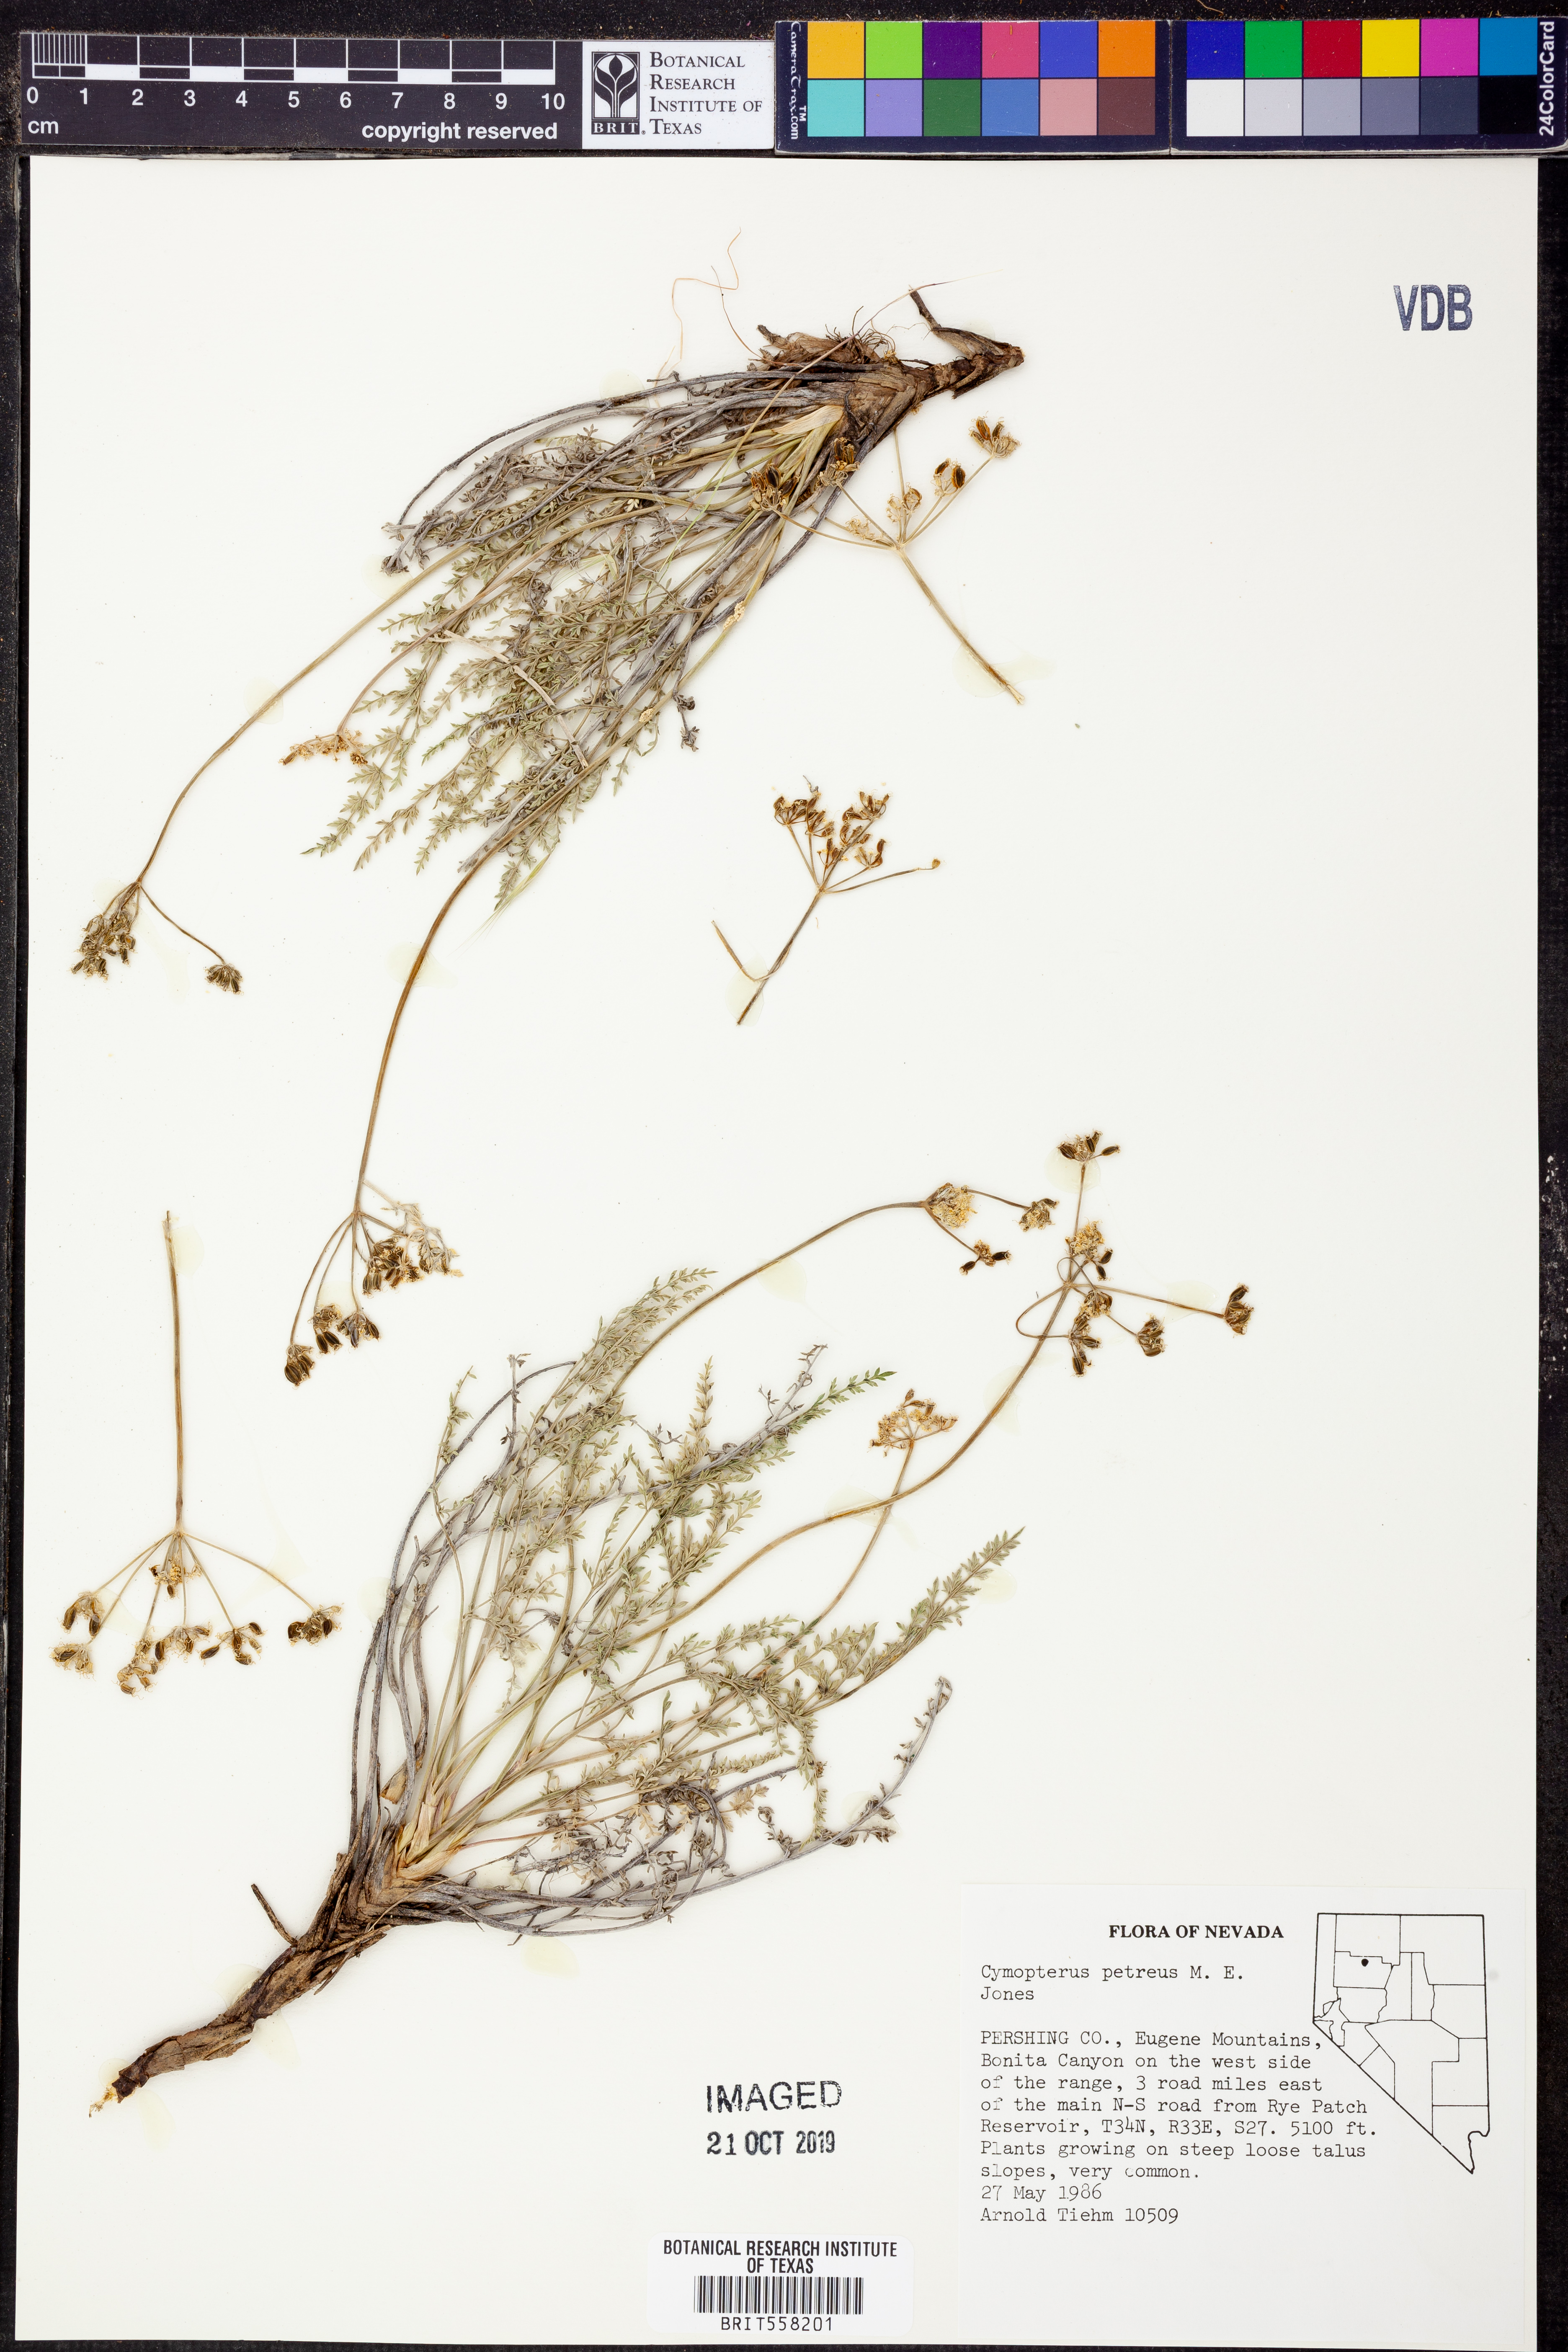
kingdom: Plantae
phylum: Tracheophyta
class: Magnoliopsida
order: Apiales
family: Apiaceae
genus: Pteryxia
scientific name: Pteryxia petraea
